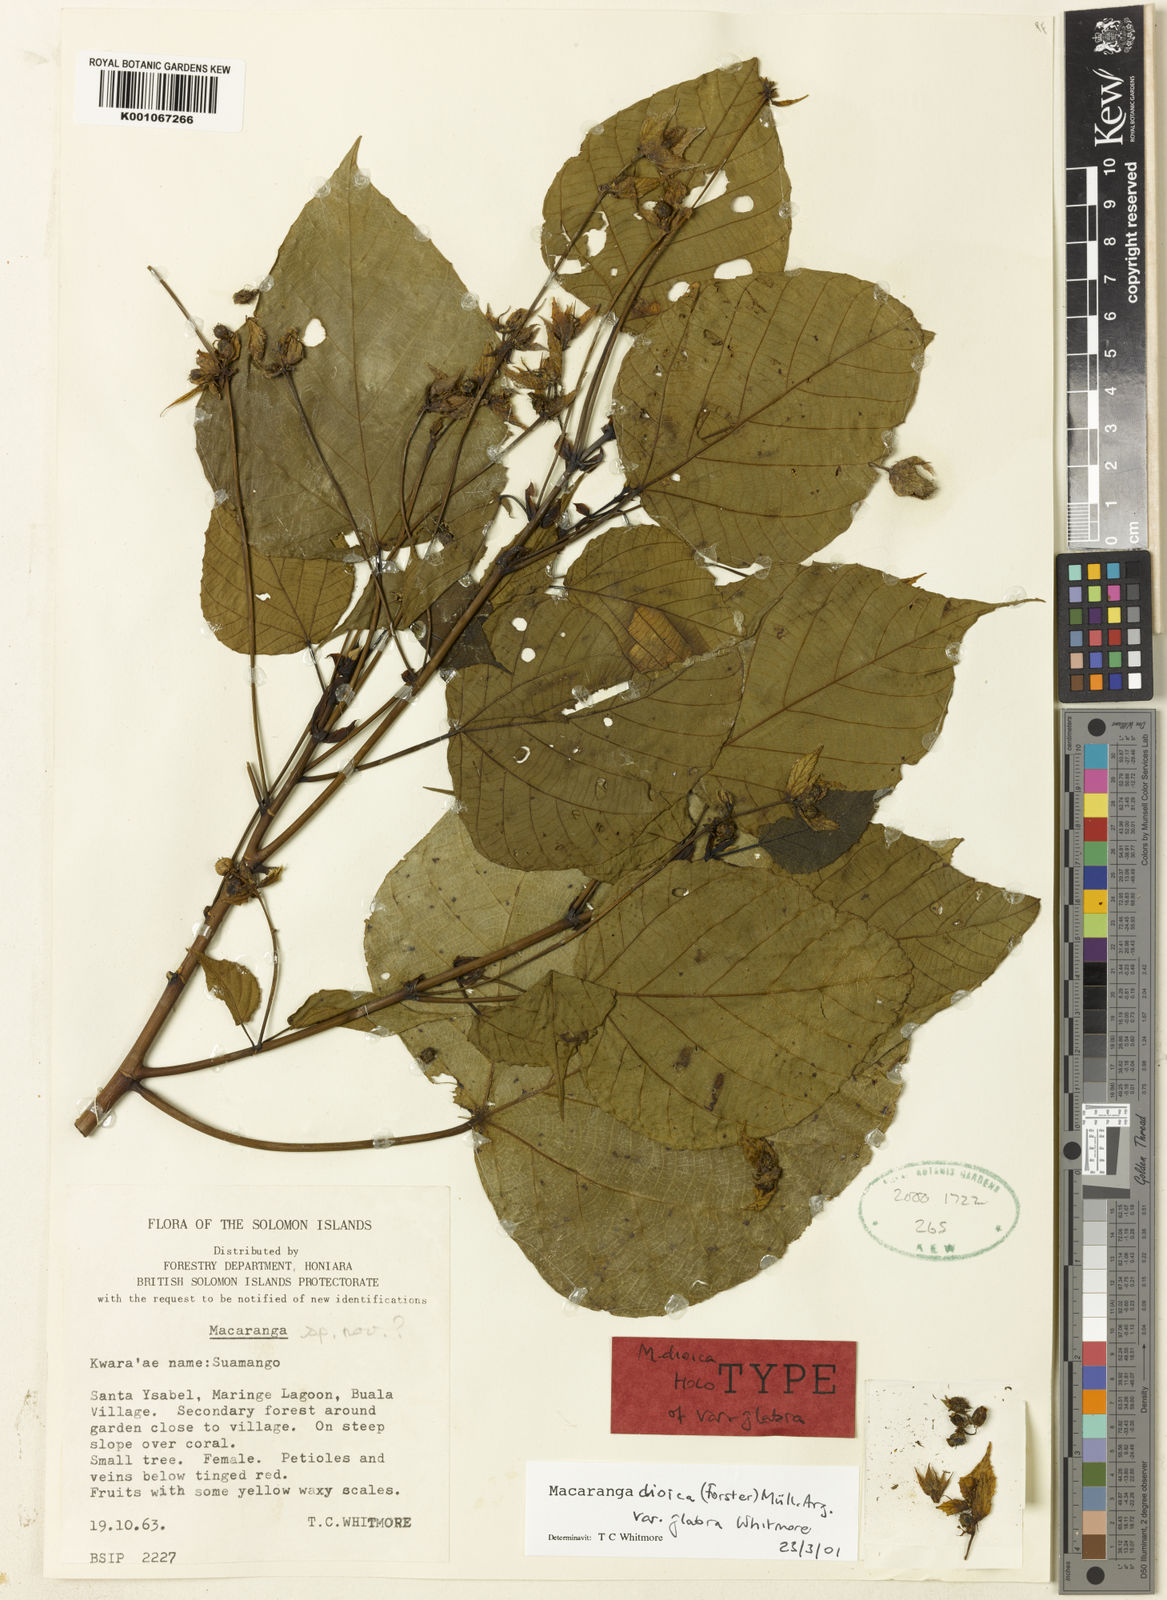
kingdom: Plantae
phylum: Tracheophyta
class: Magnoliopsida
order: Malpighiales
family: Euphorbiaceae
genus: Macaranga
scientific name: Macaranga
